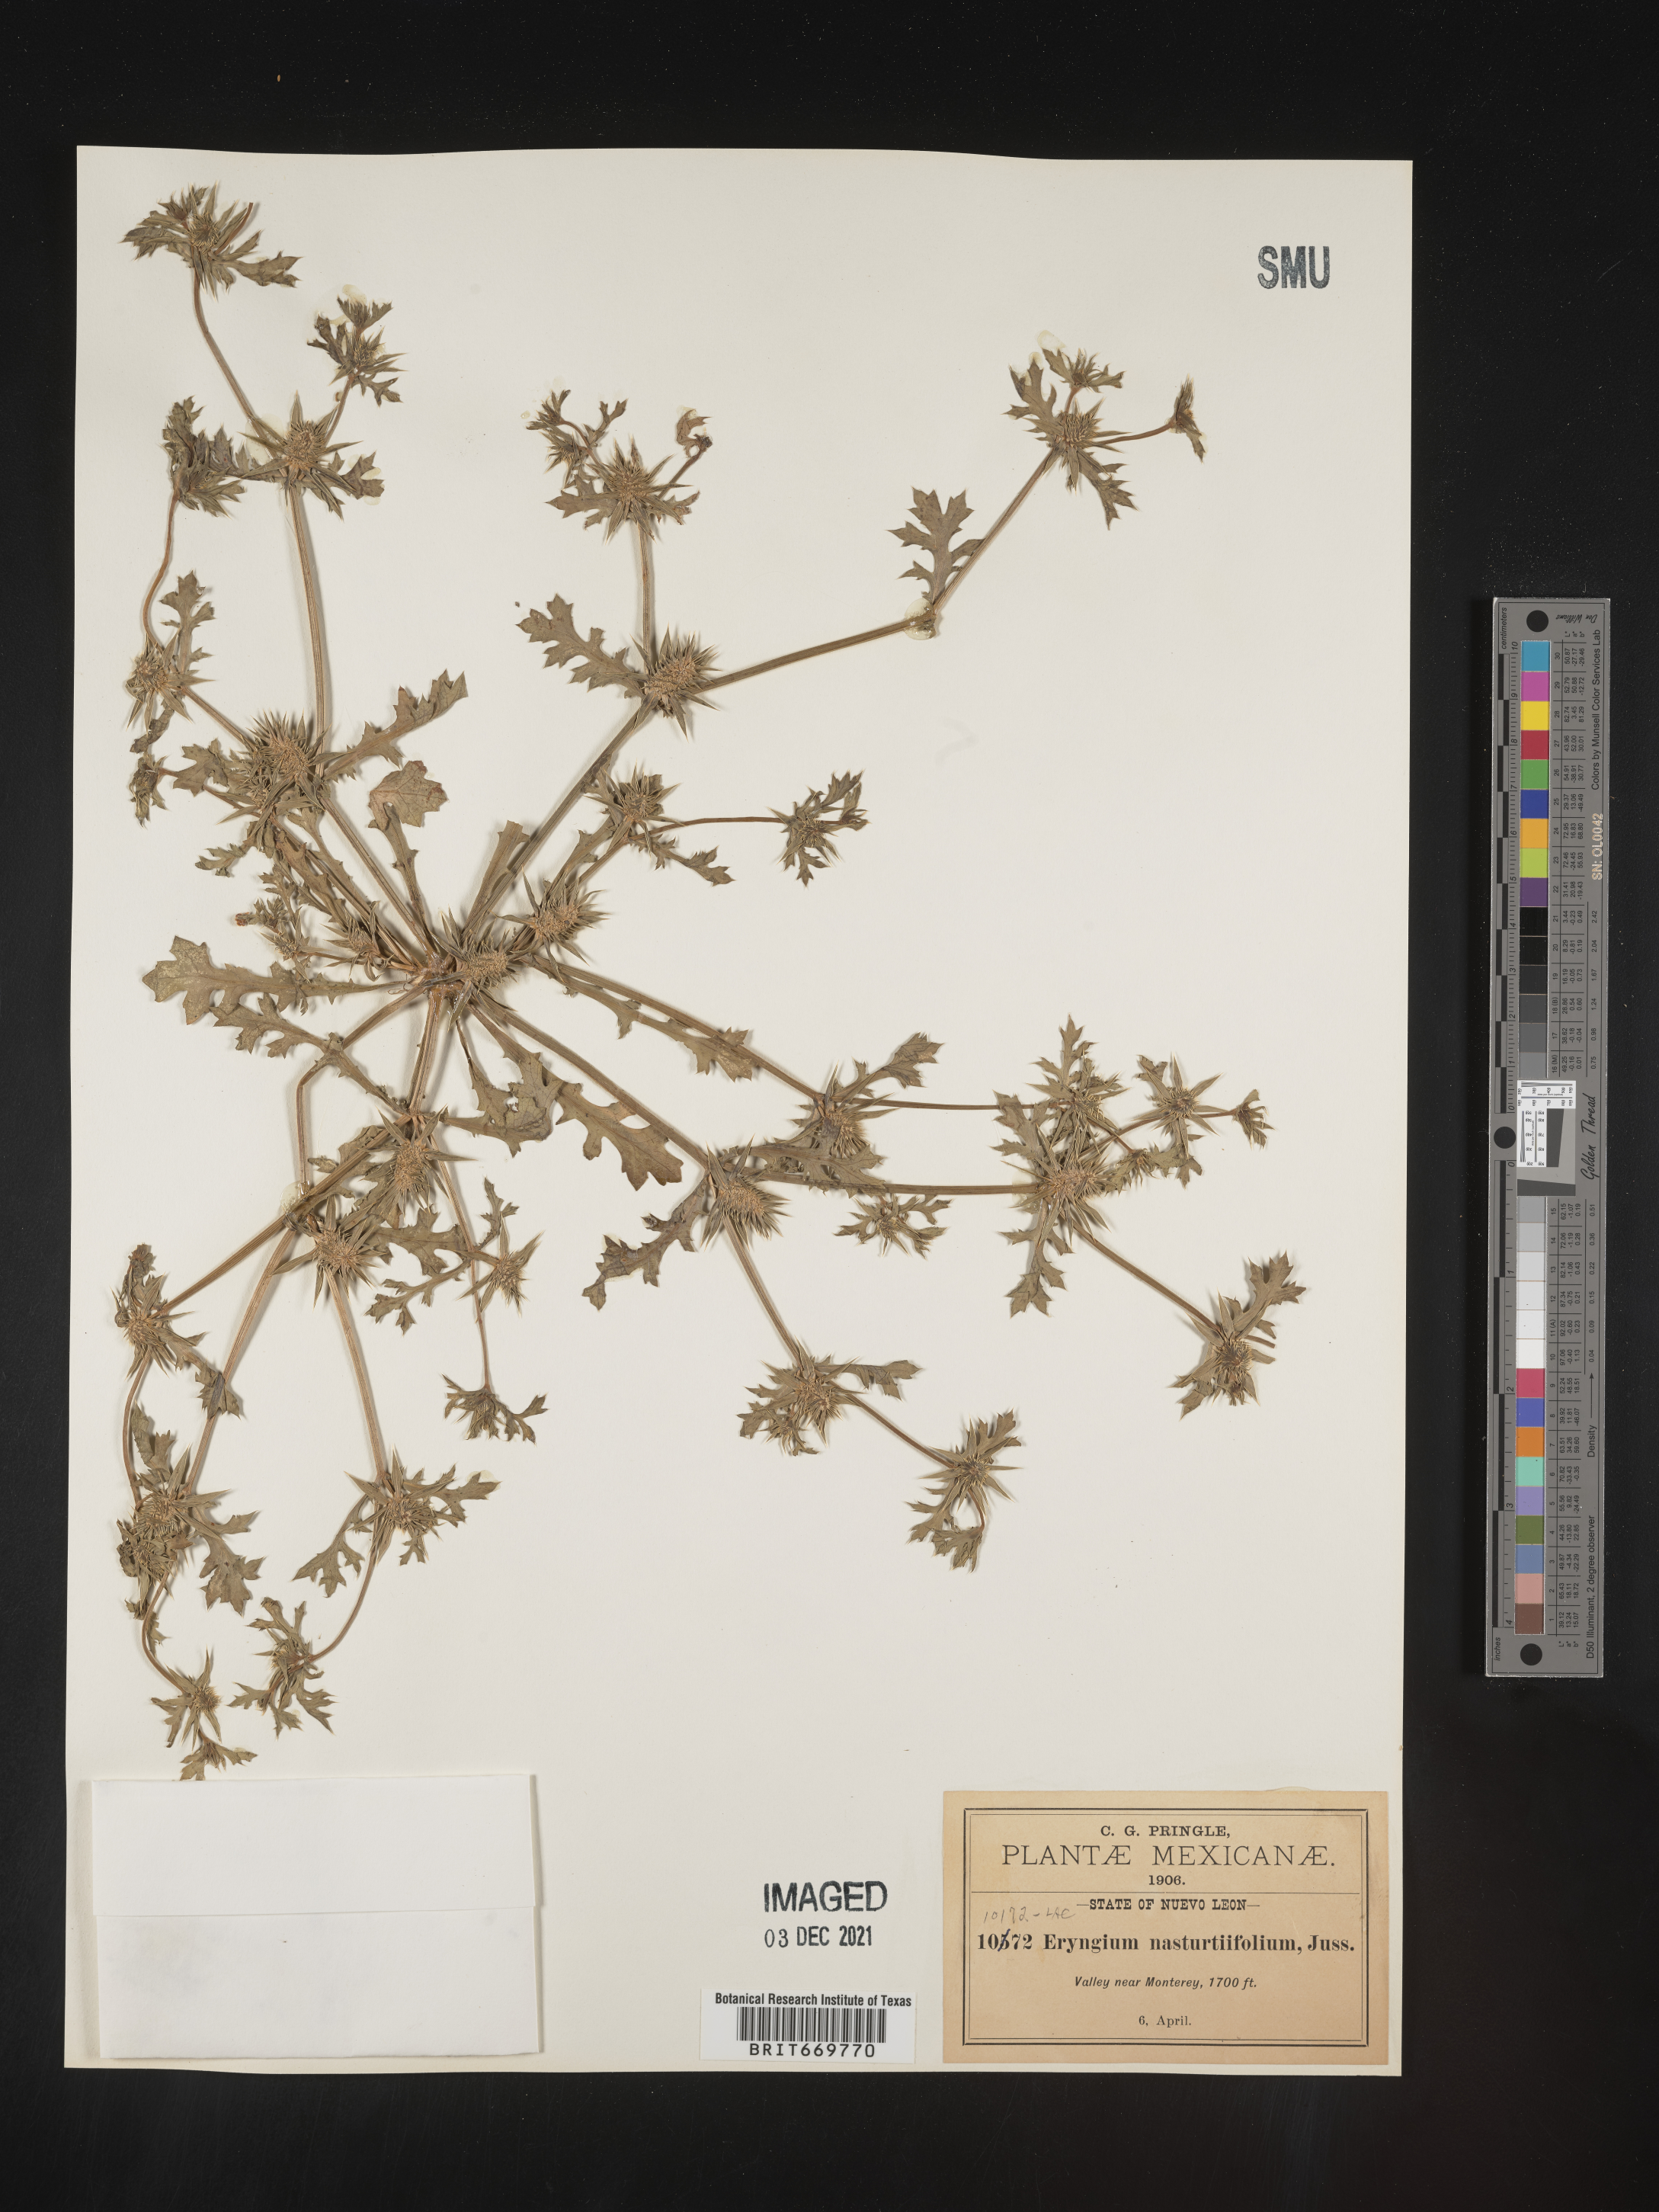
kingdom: Plantae
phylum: Tracheophyta
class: Magnoliopsida
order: Apiales
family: Apiaceae
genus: Eryngium
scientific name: Eryngium
